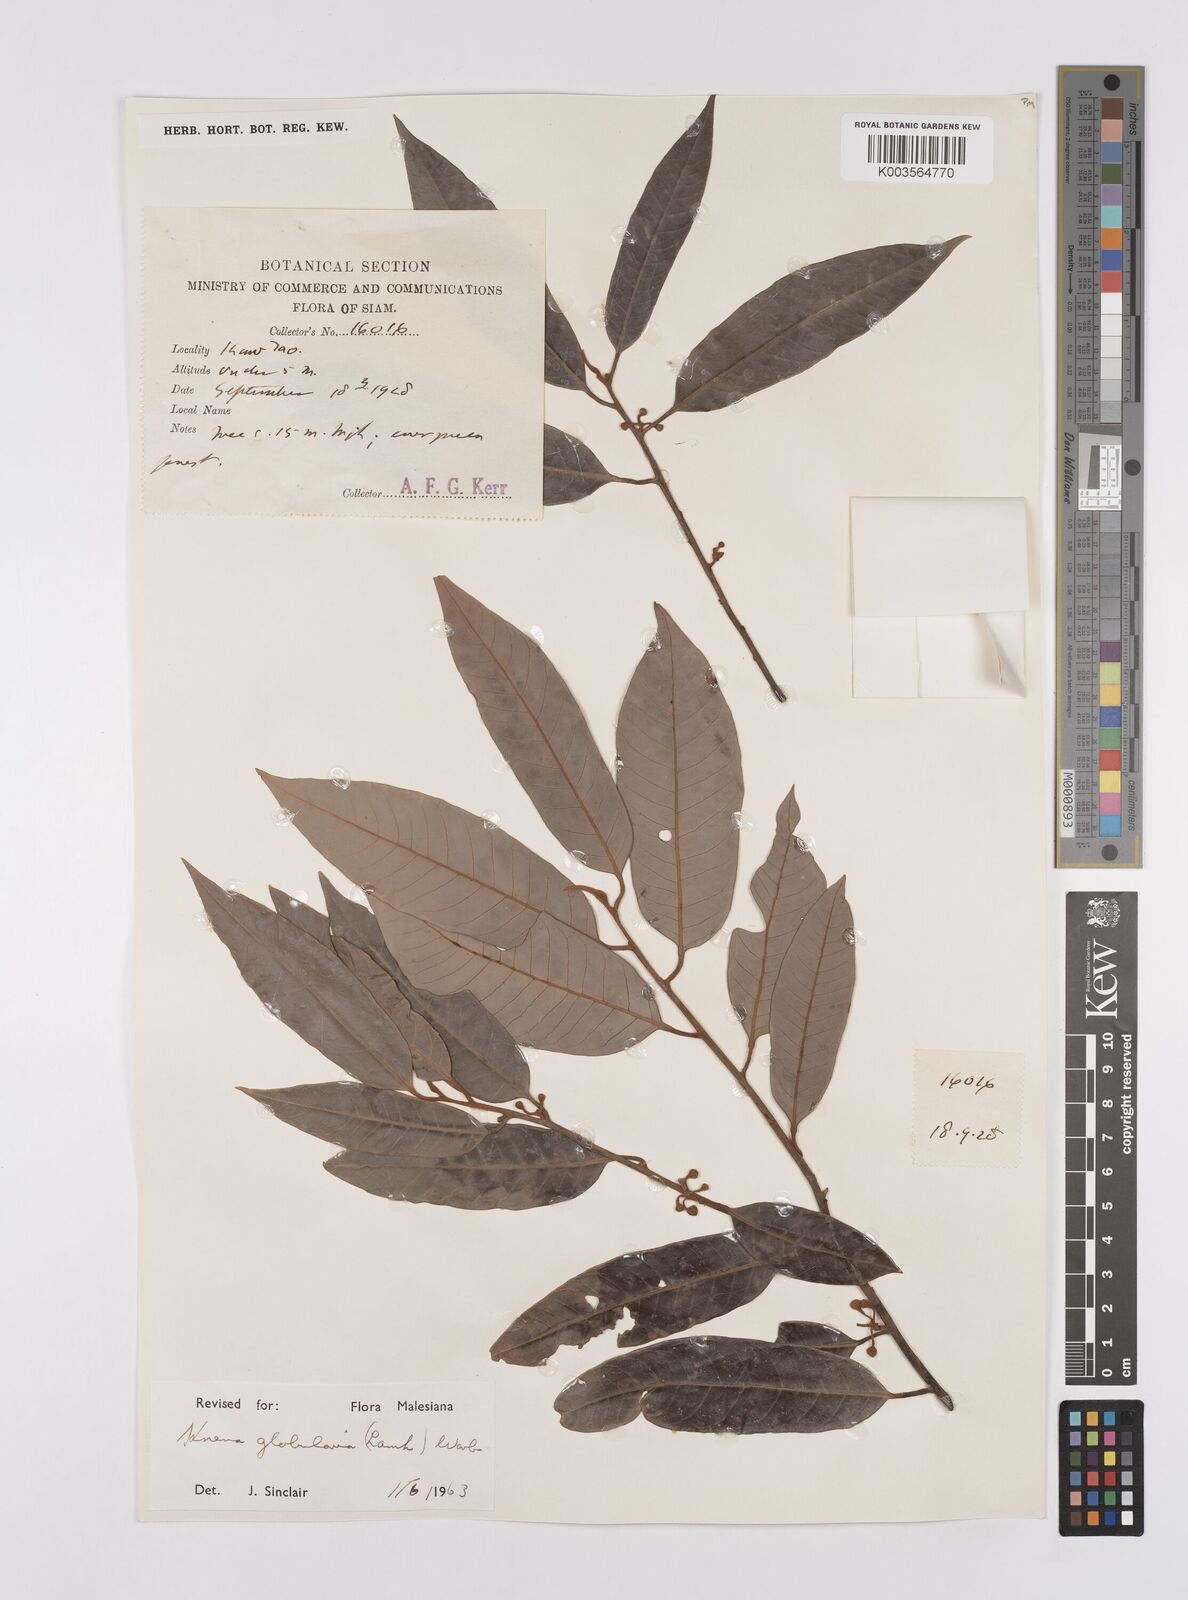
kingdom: Plantae
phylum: Tracheophyta
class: Magnoliopsida
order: Magnoliales
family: Myristicaceae
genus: Knema
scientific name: Knema globularia
